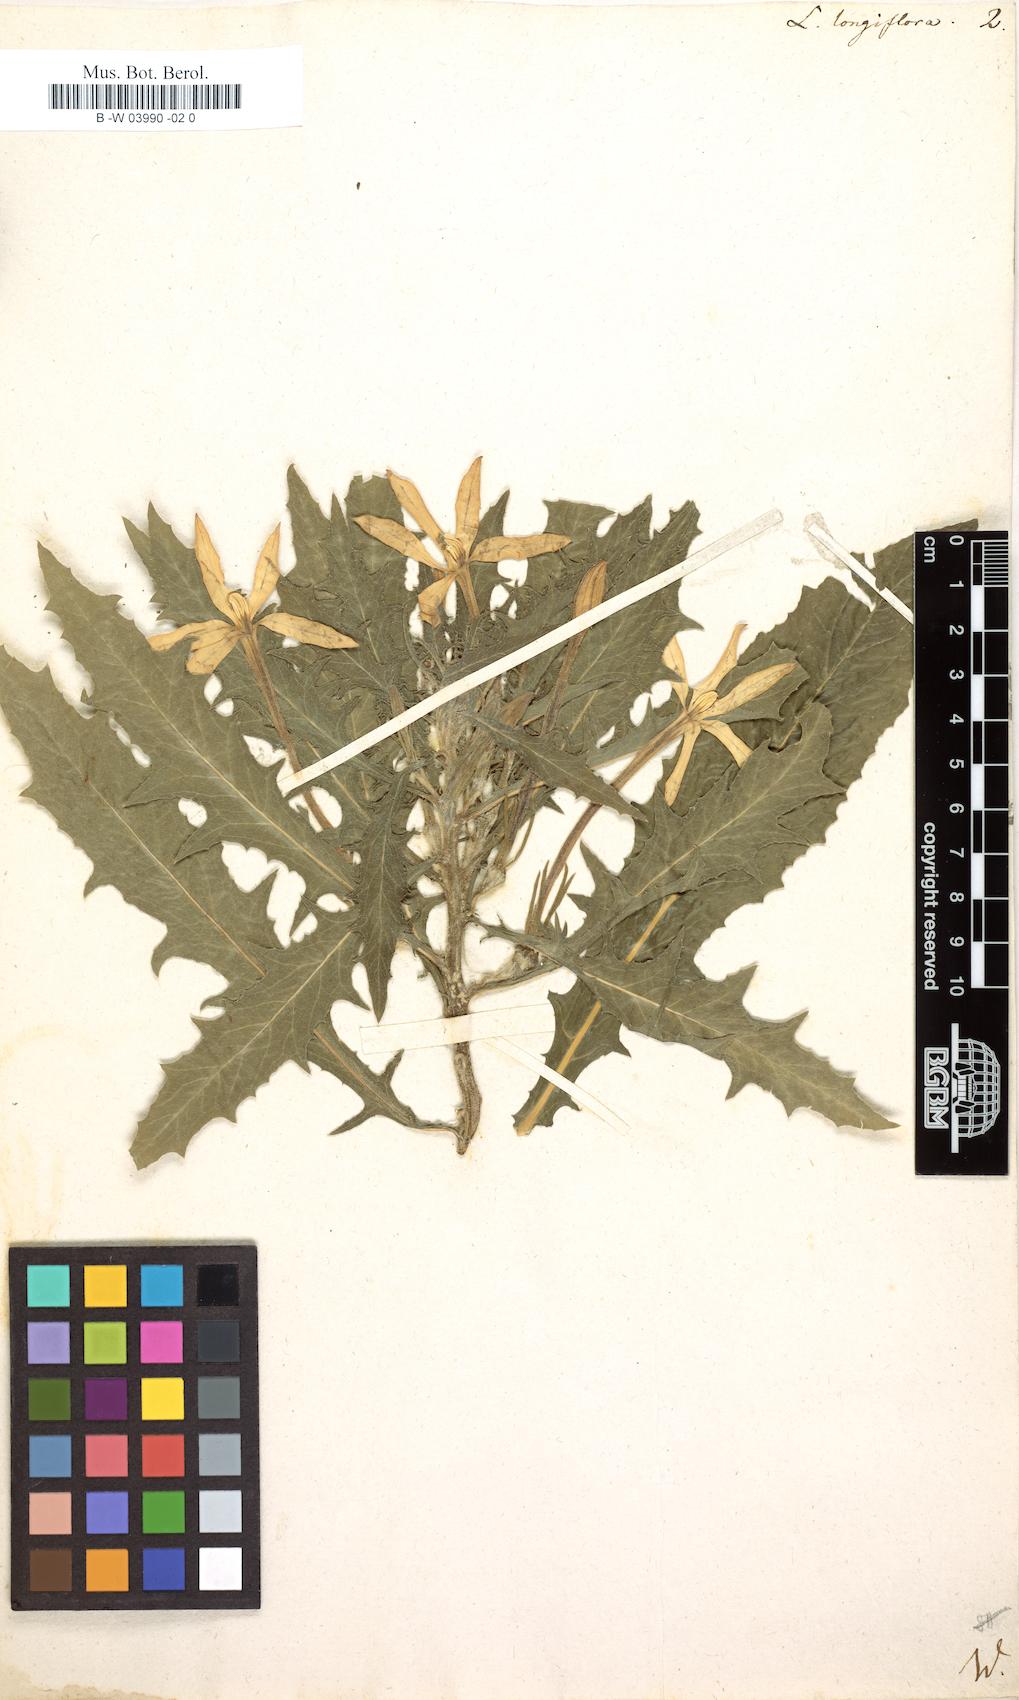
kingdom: Plantae
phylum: Tracheophyta
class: Magnoliopsida
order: Asterales
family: Campanulaceae
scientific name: Campanulaceae
